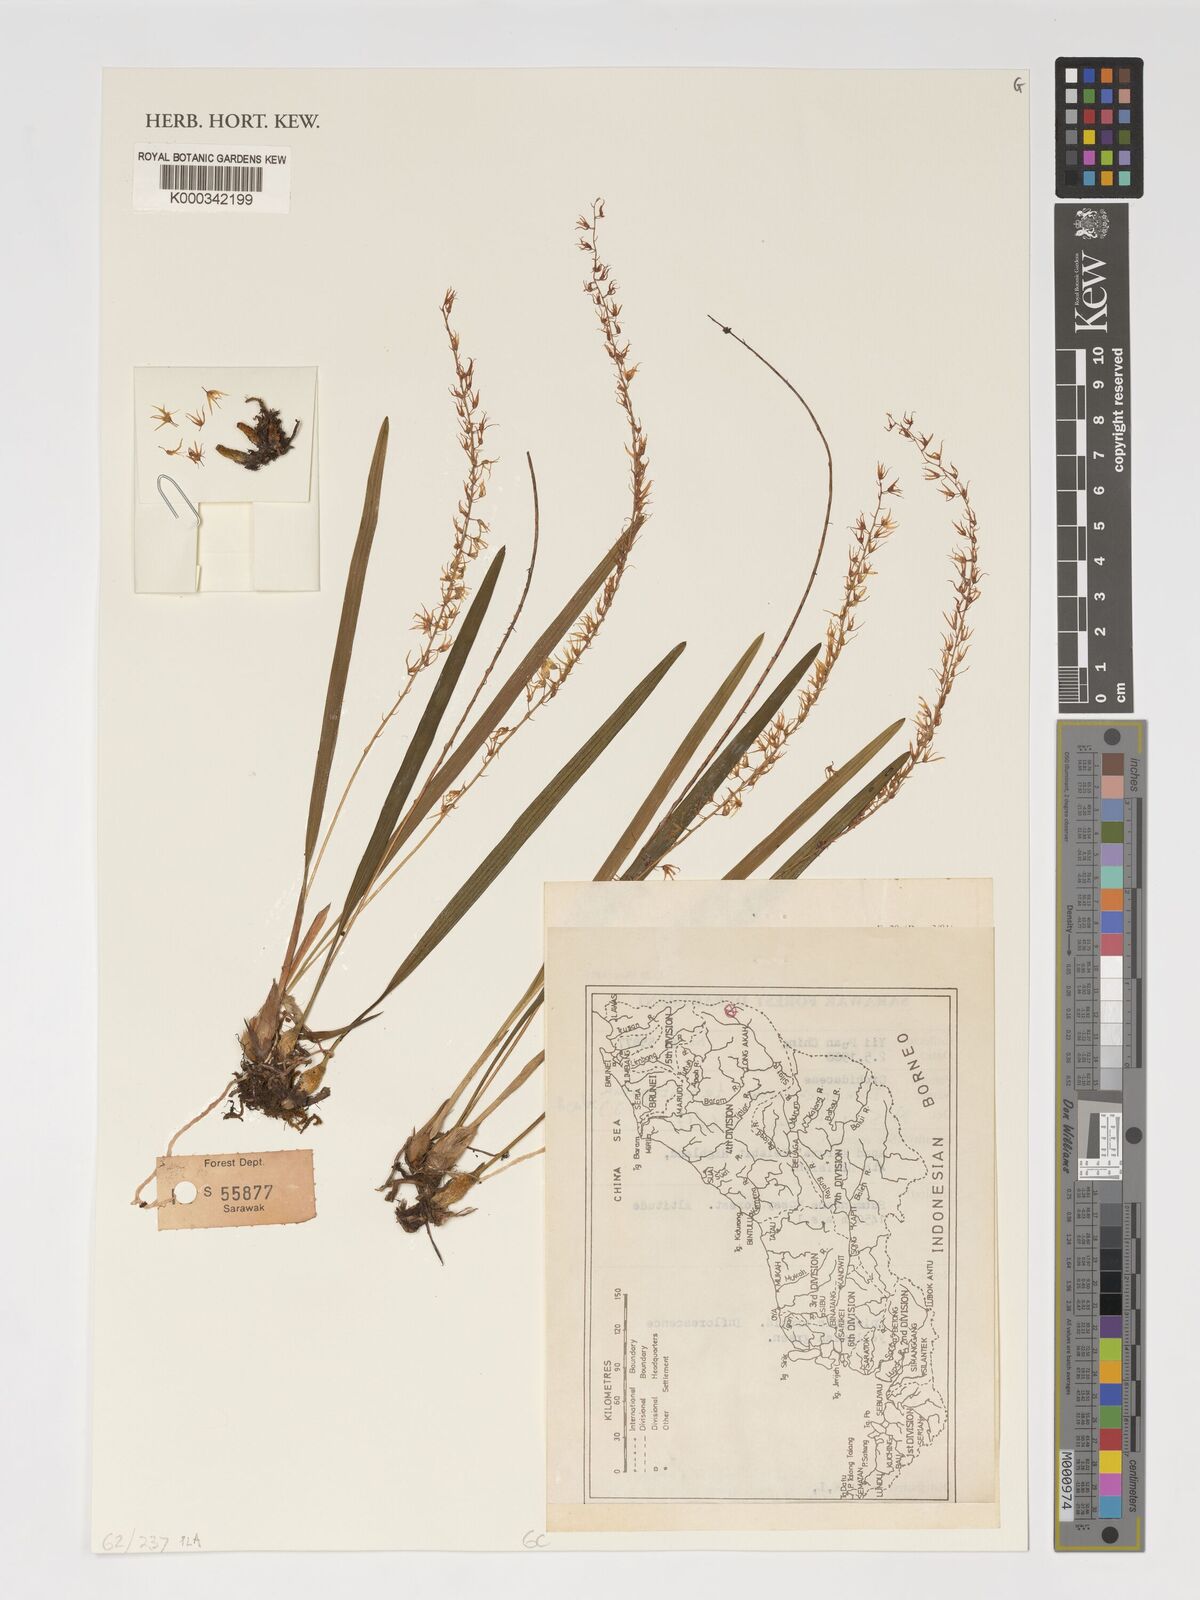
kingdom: Plantae
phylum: Tracheophyta
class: Liliopsida
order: Asparagales
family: Orchidaceae
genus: Coelogyne
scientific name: Coelogyne tenuitepala
